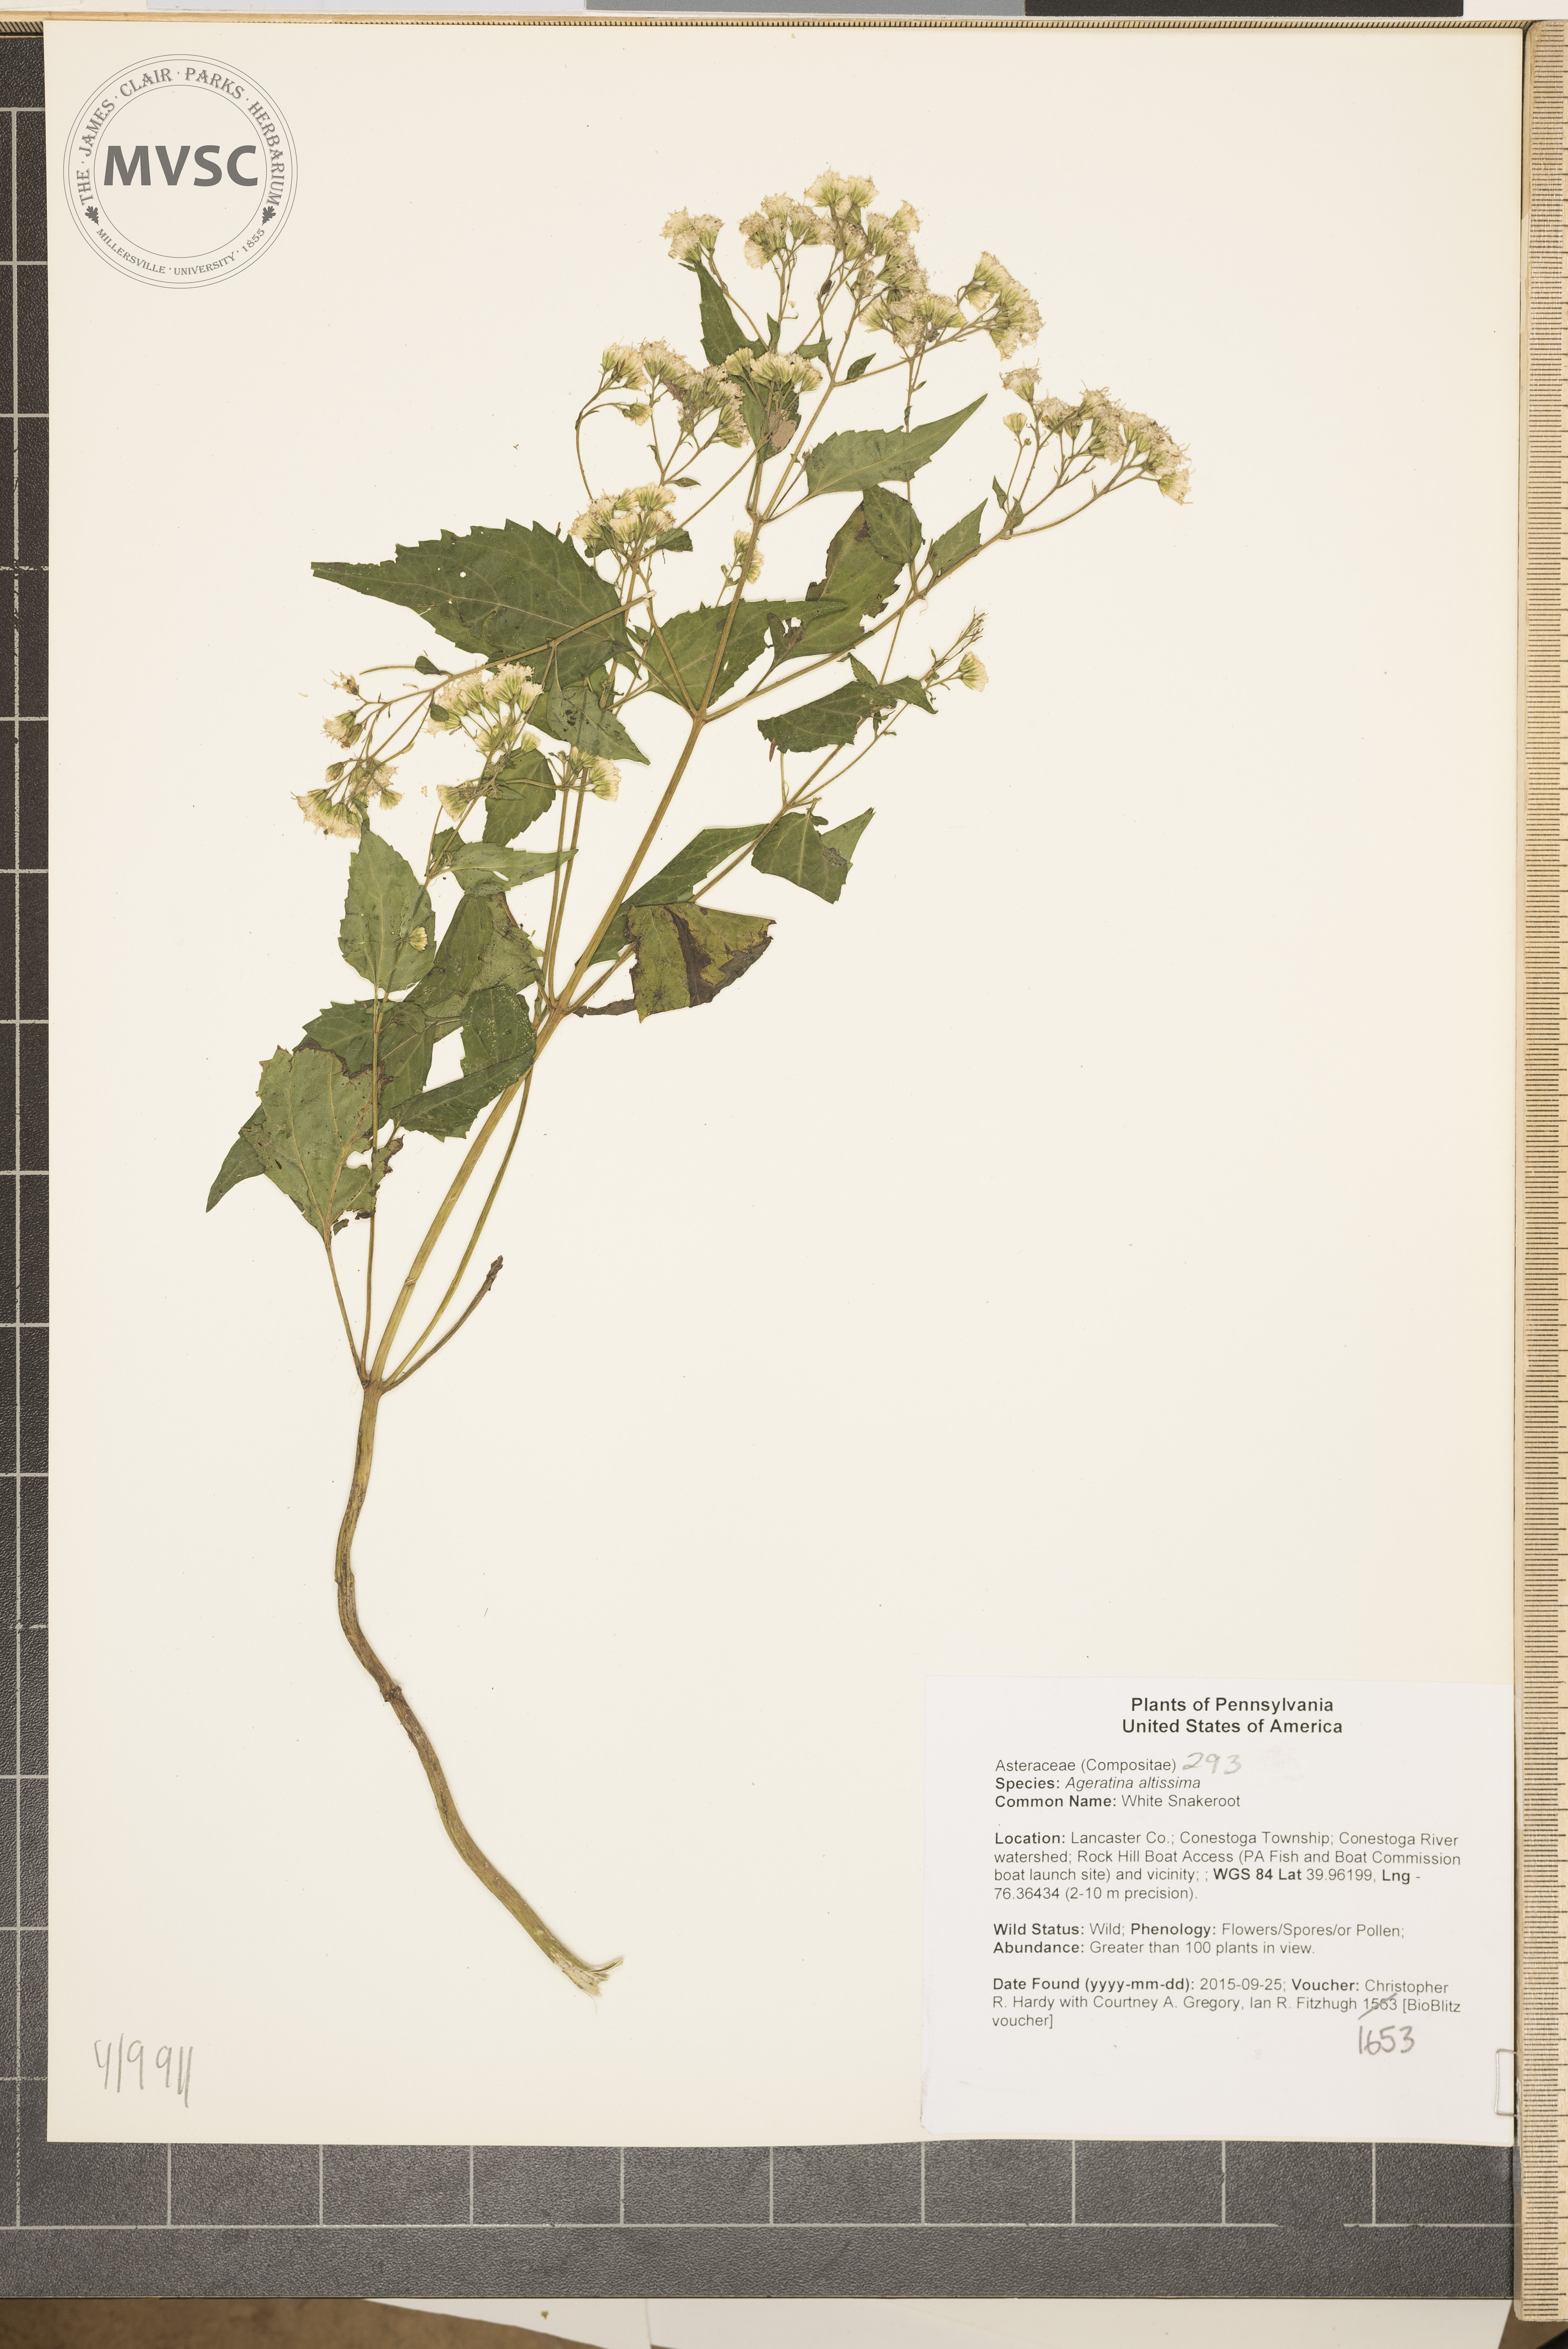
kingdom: Plantae
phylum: Tracheophyta
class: Magnoliopsida
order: Asterales
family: Asteraceae
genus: Ageratina
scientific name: Ageratina altissima
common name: White Snakeroot
